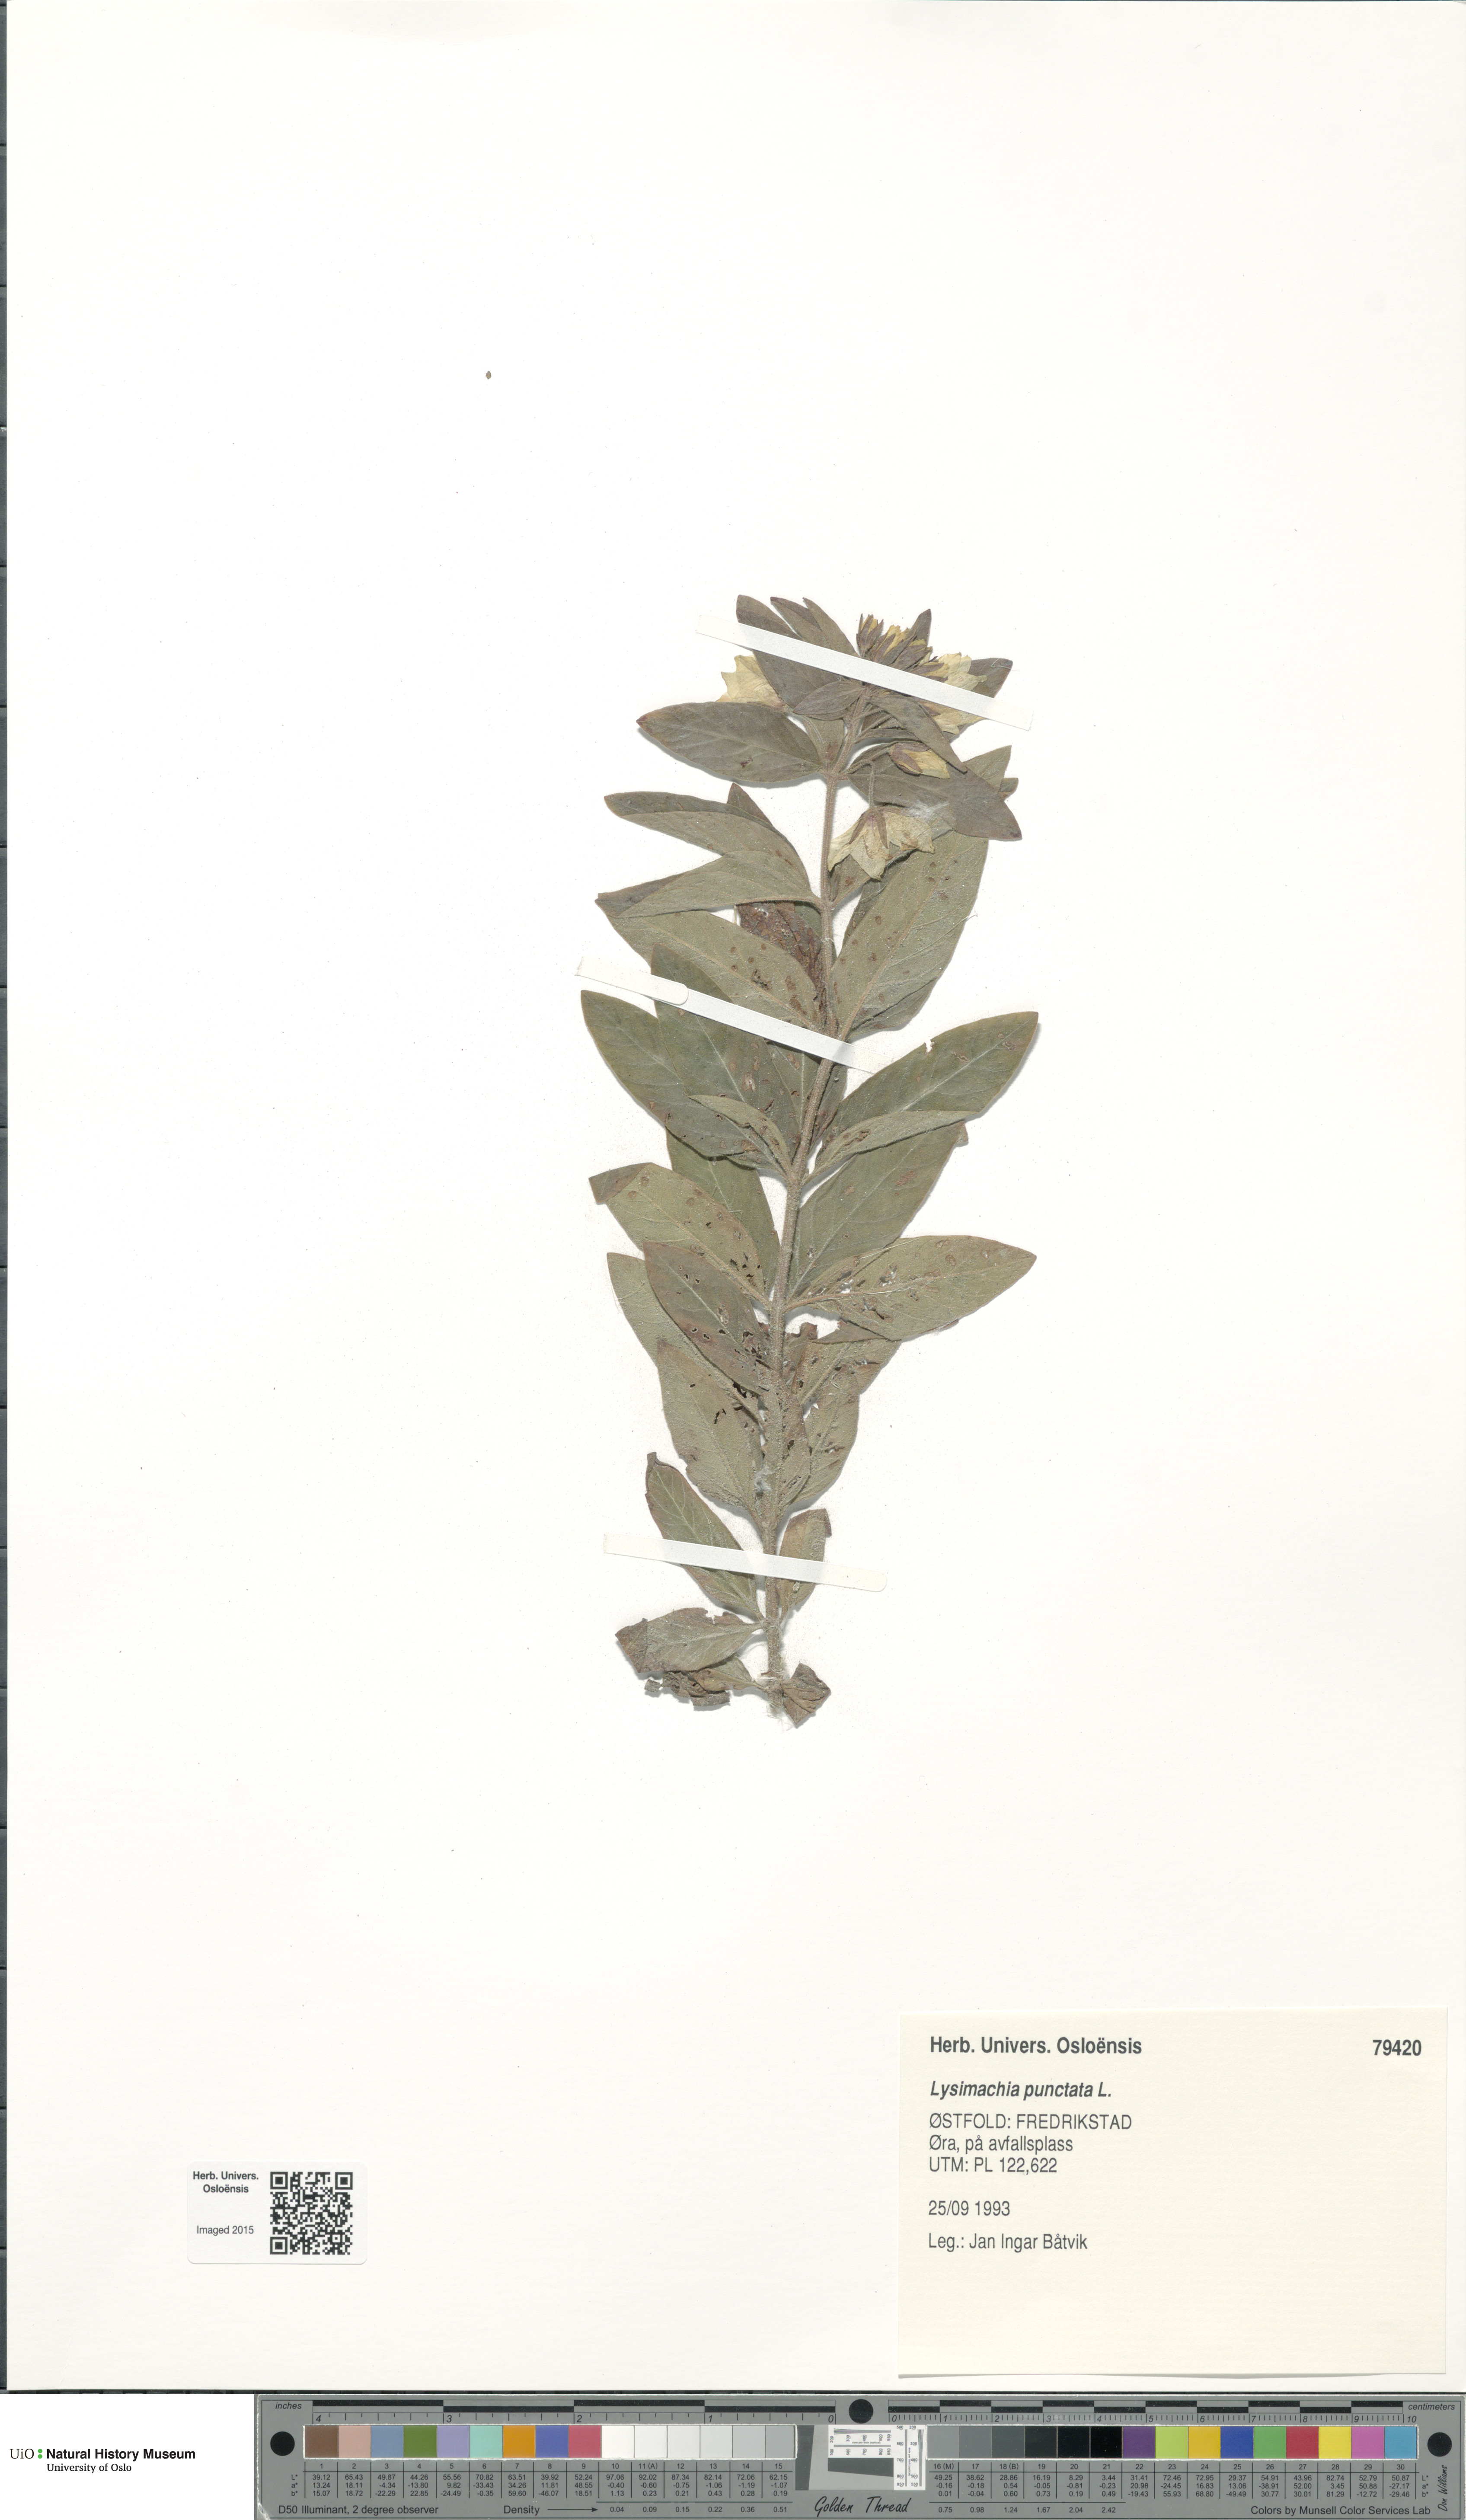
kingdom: Plantae
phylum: Tracheophyta
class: Magnoliopsida
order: Ericales
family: Primulaceae
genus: Lysimachia
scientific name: Lysimachia punctata
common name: Dotted loosestrife
